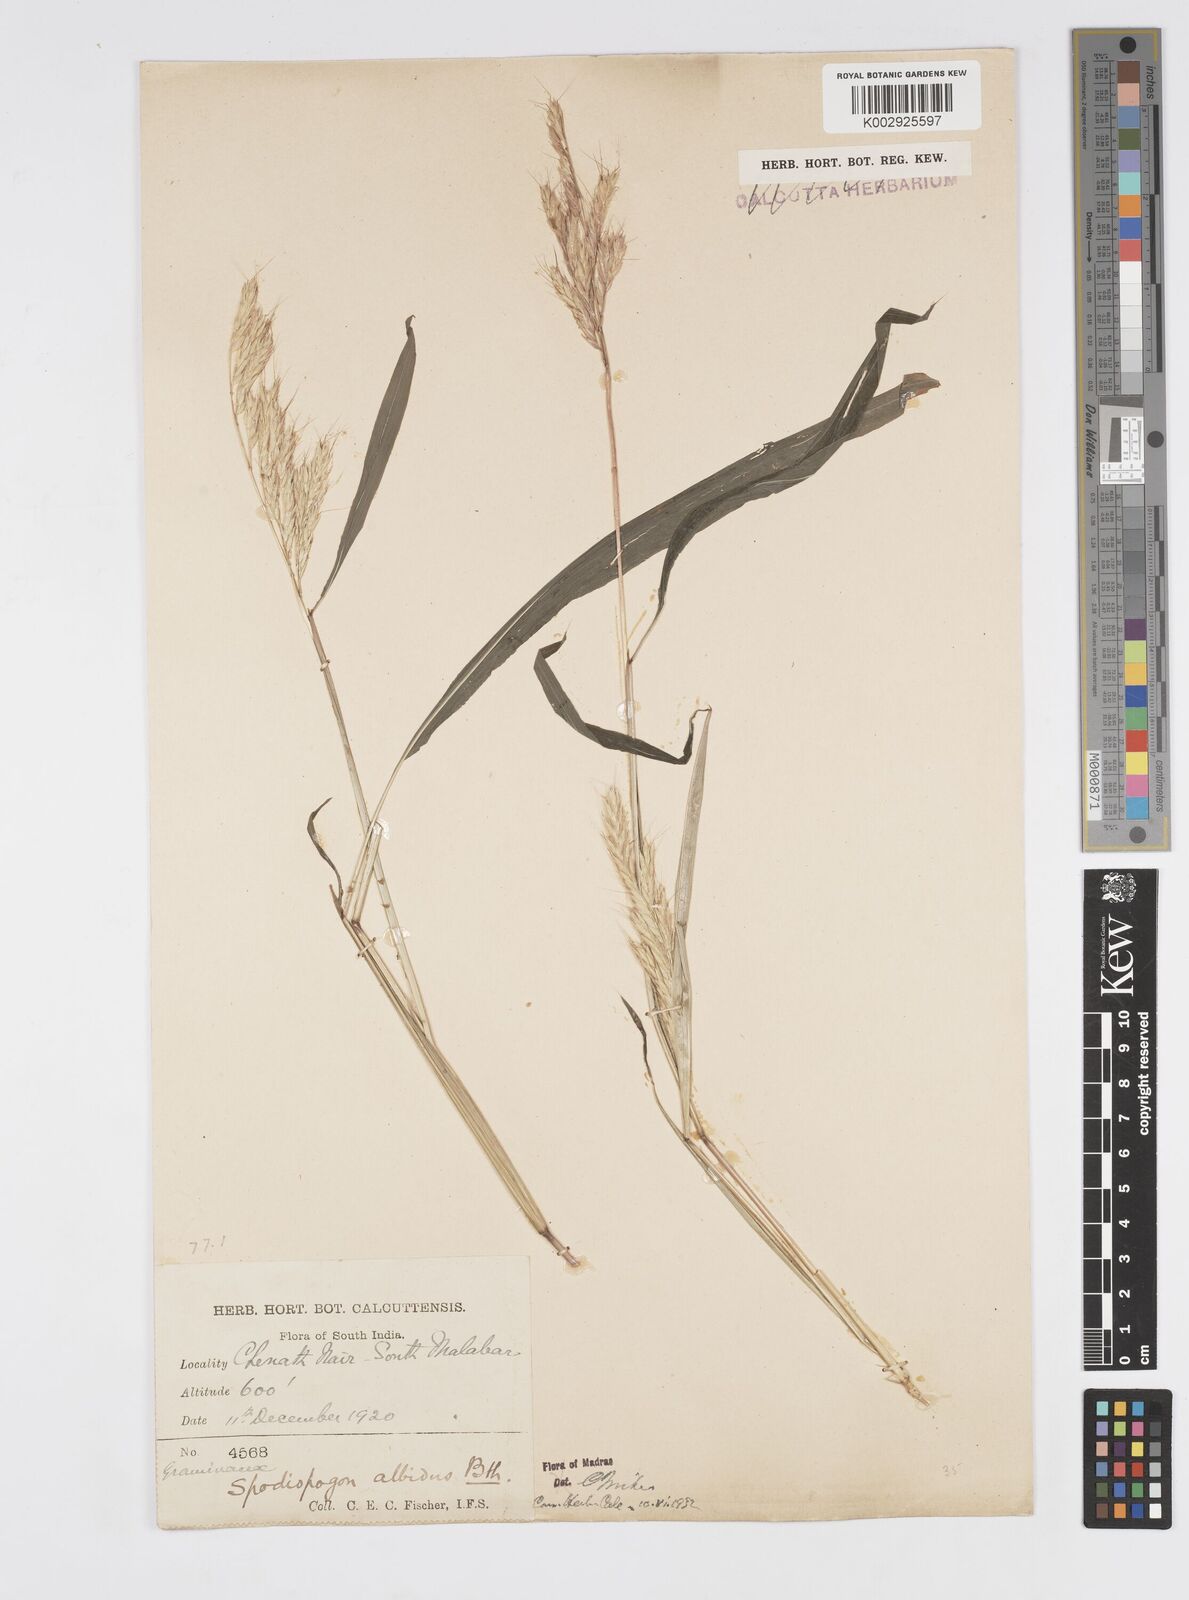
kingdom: Plantae
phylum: Tracheophyta
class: Liliopsida
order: Poales
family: Poaceae
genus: Spodiopogon
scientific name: Spodiopogon rhizophorus
